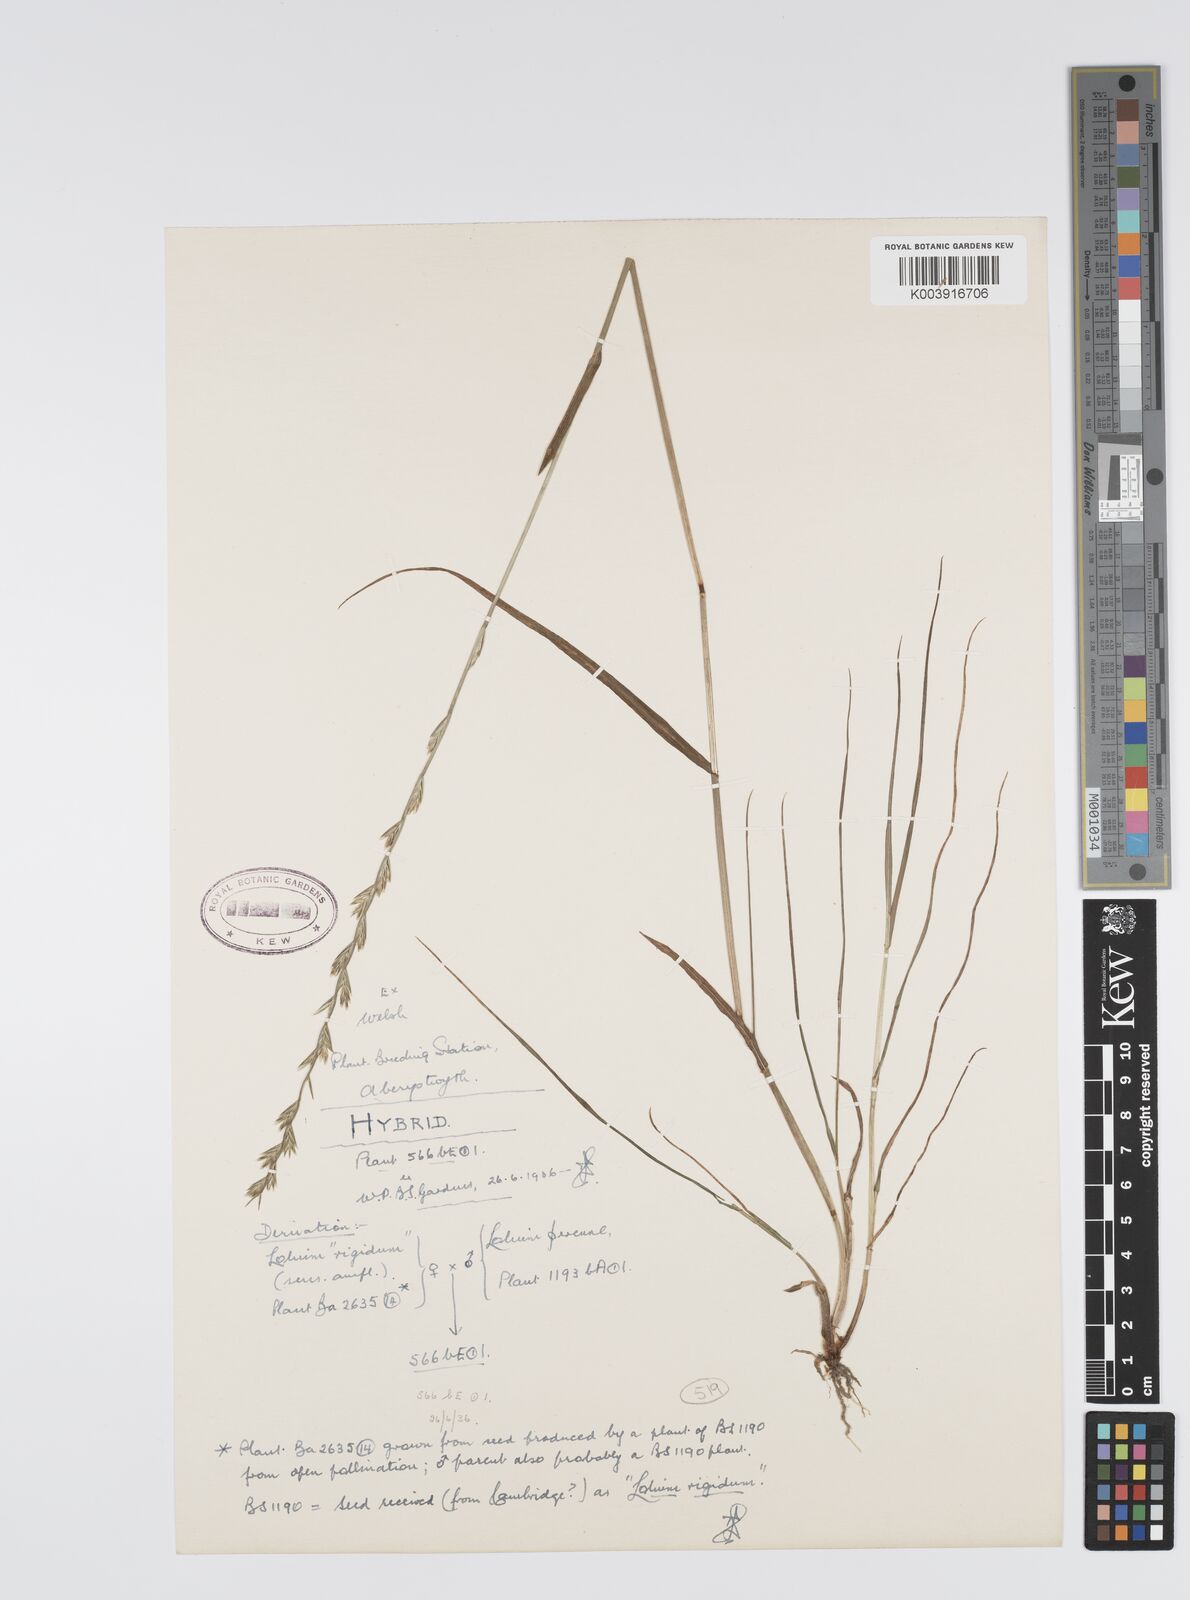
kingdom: Plantae
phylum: Tracheophyta
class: Liliopsida
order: Poales
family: Poaceae
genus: Lolium
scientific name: Lolium perenne
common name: Perennial ryegrass
